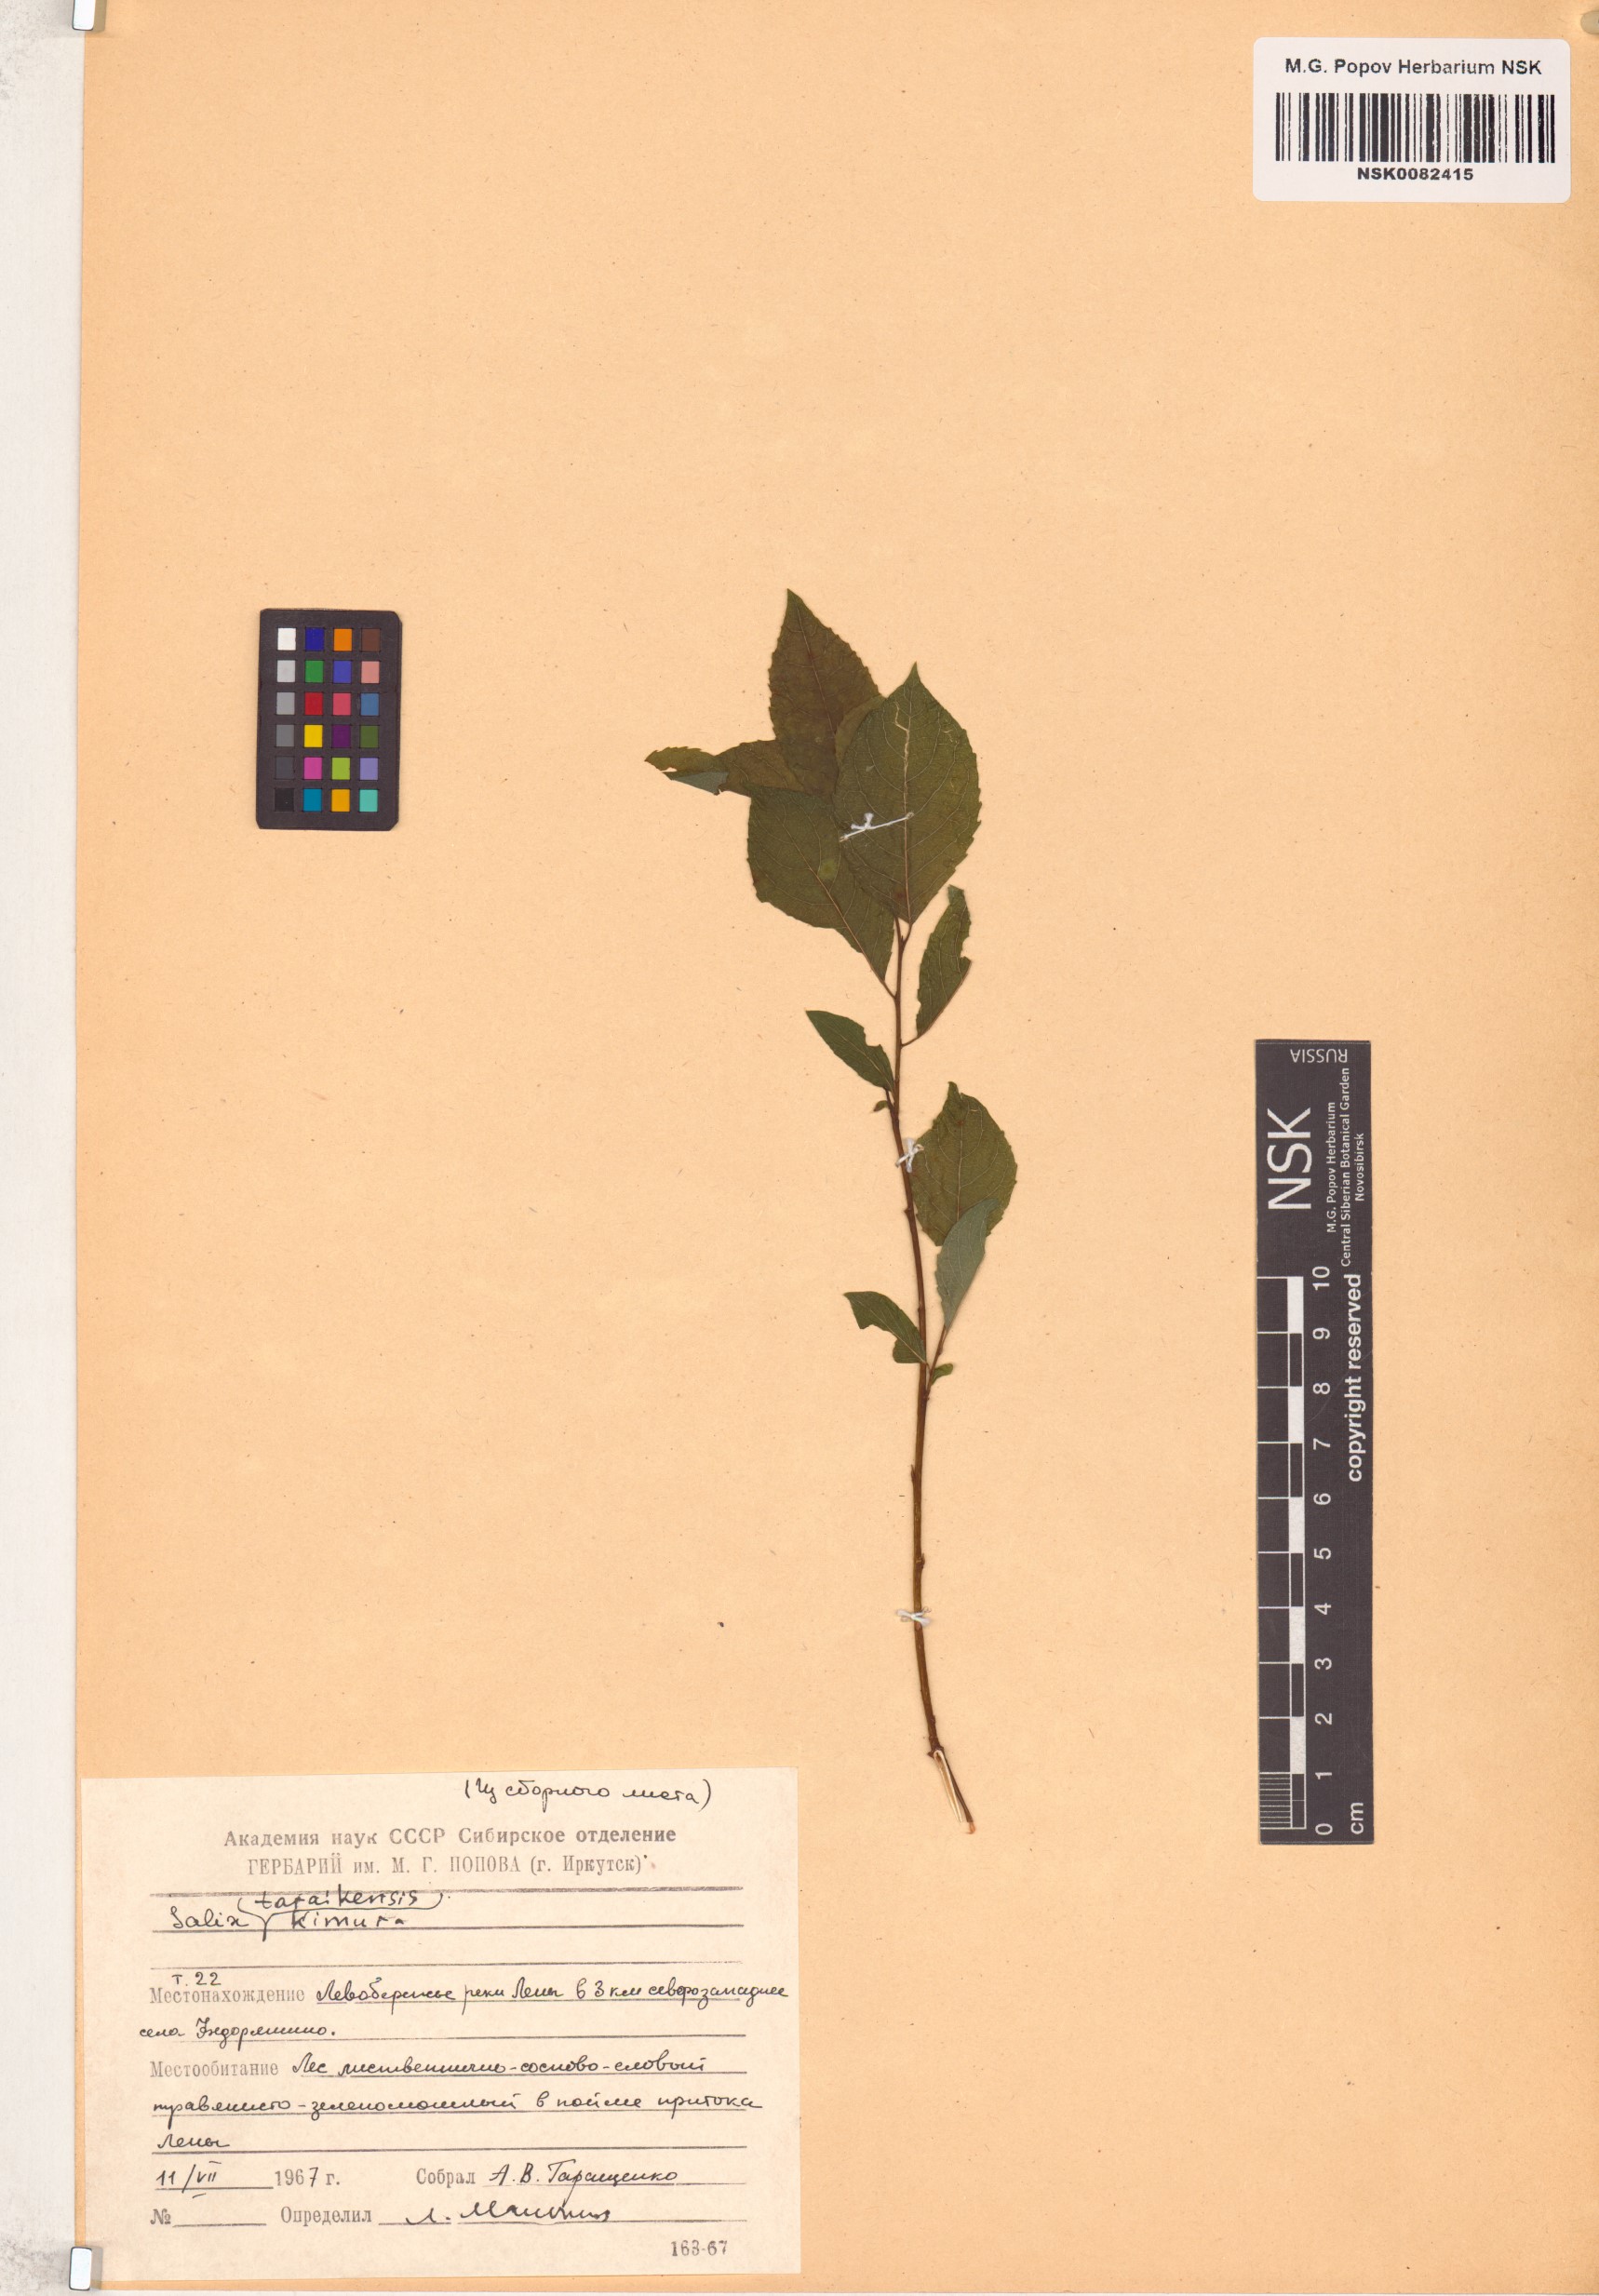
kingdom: Plantae
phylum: Tracheophyta
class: Magnoliopsida
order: Malpighiales
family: Salicaceae
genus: Salix
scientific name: Salix taraikensis
